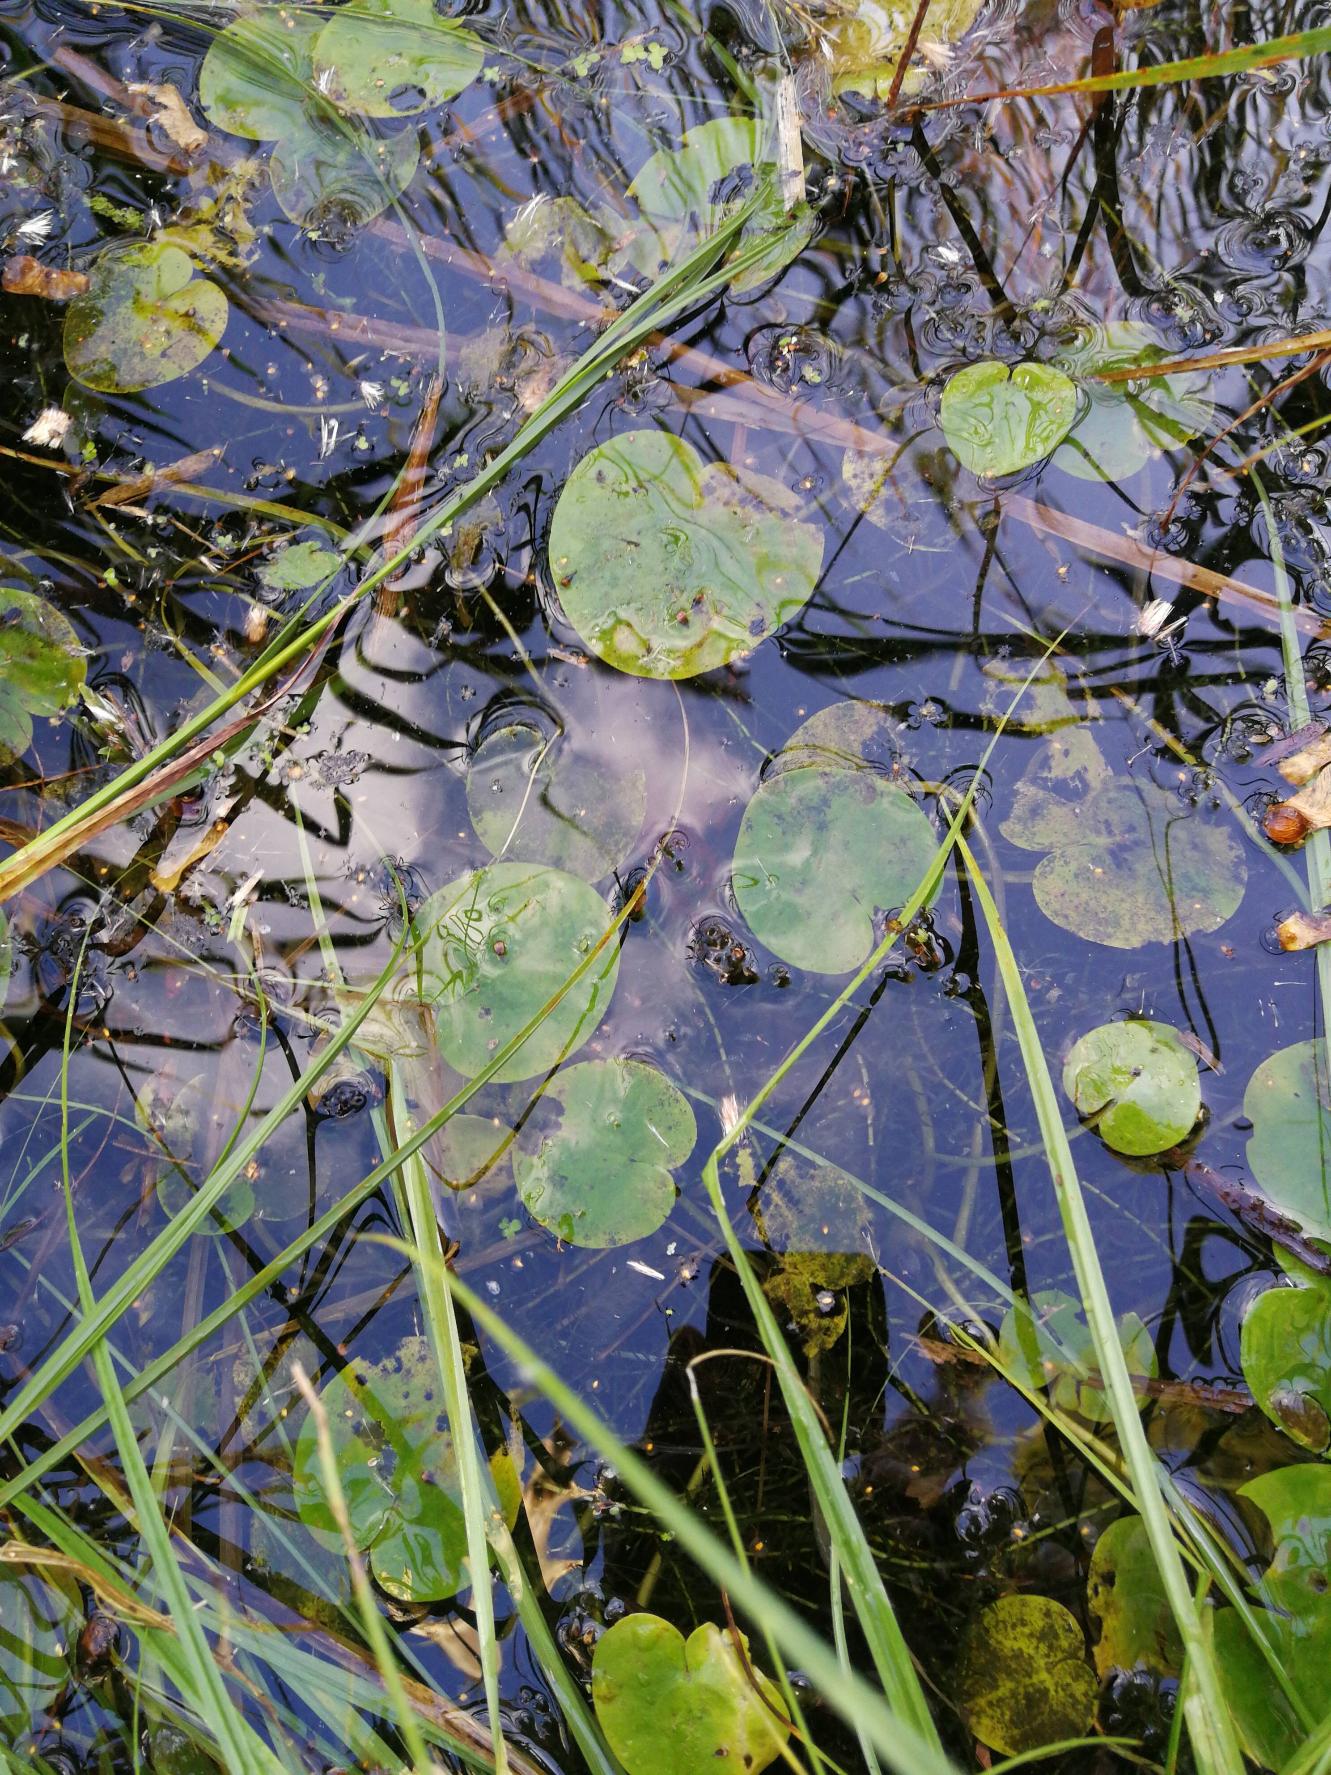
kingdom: Plantae
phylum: Tracheophyta
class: Liliopsida
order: Alismatales
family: Hydrocharitaceae
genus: Hydrocharis
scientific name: Hydrocharis morsus-ranae
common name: Frøbid
